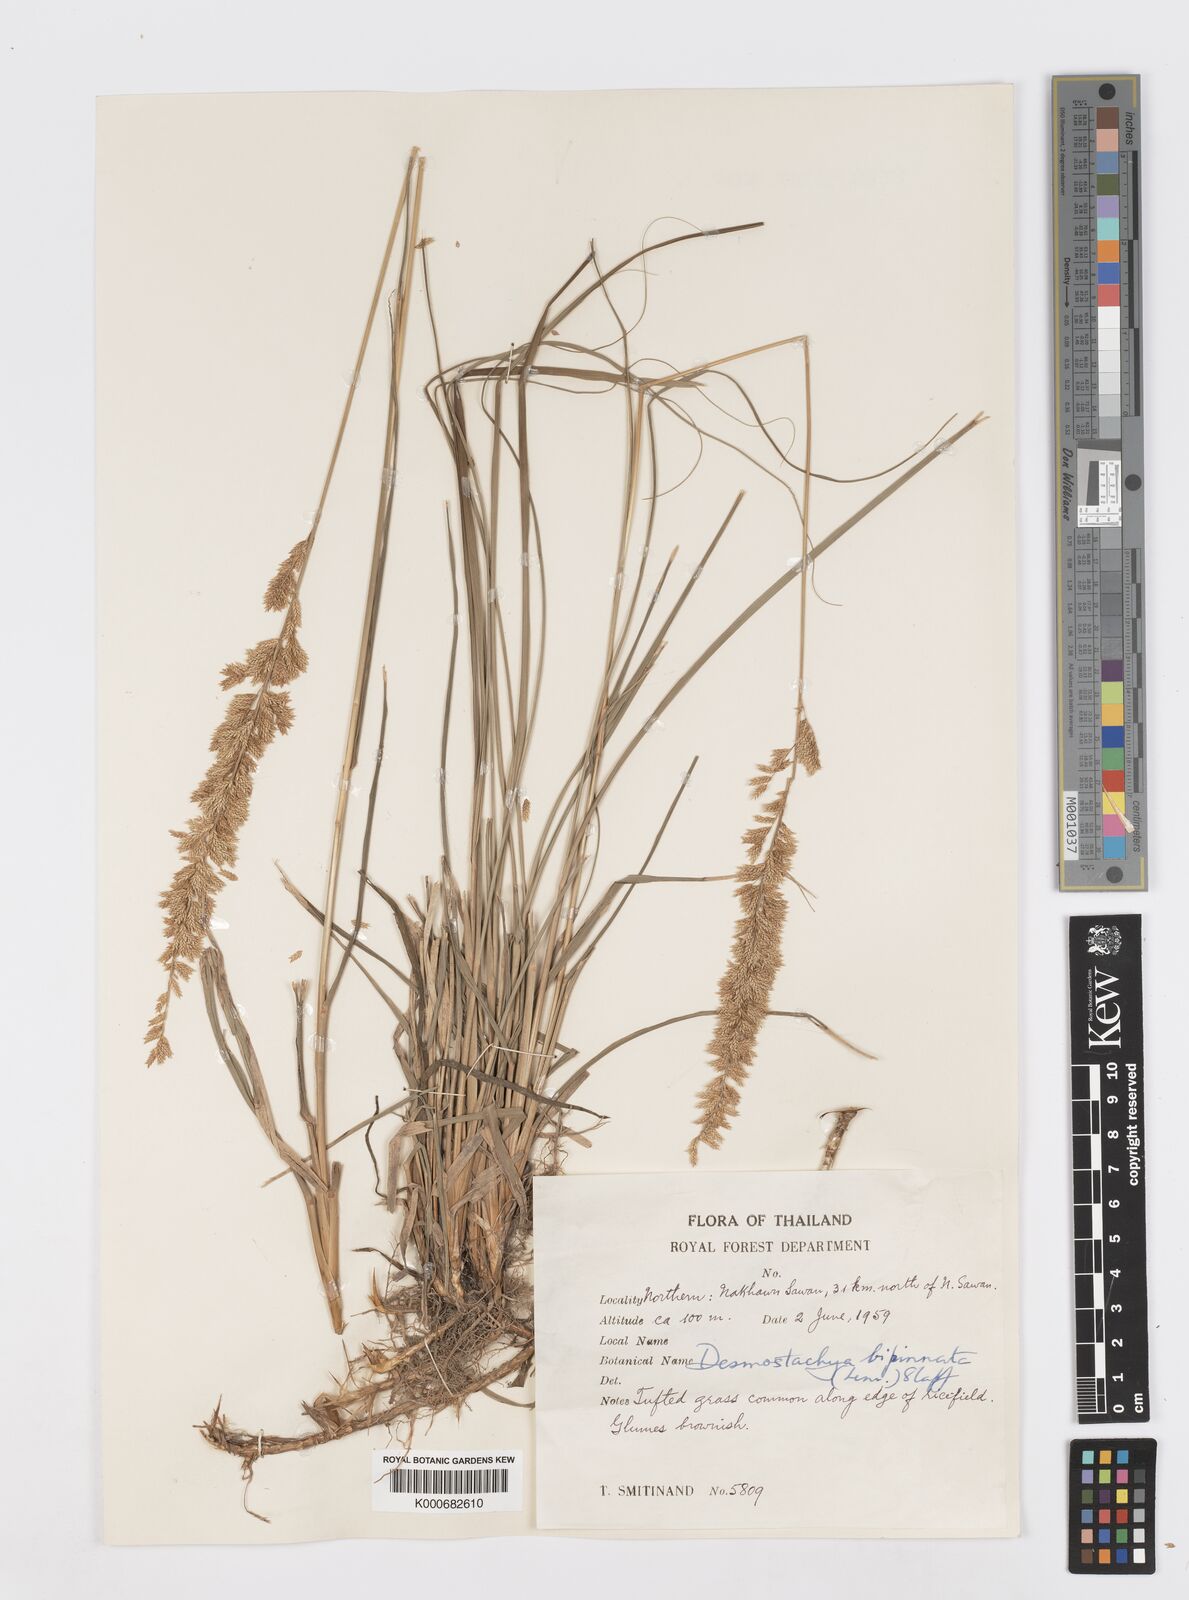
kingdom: Plantae
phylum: Tracheophyta
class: Liliopsida
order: Poales
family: Poaceae
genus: Desmostachya
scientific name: Desmostachya bipinnata
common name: Crowfoot grass
